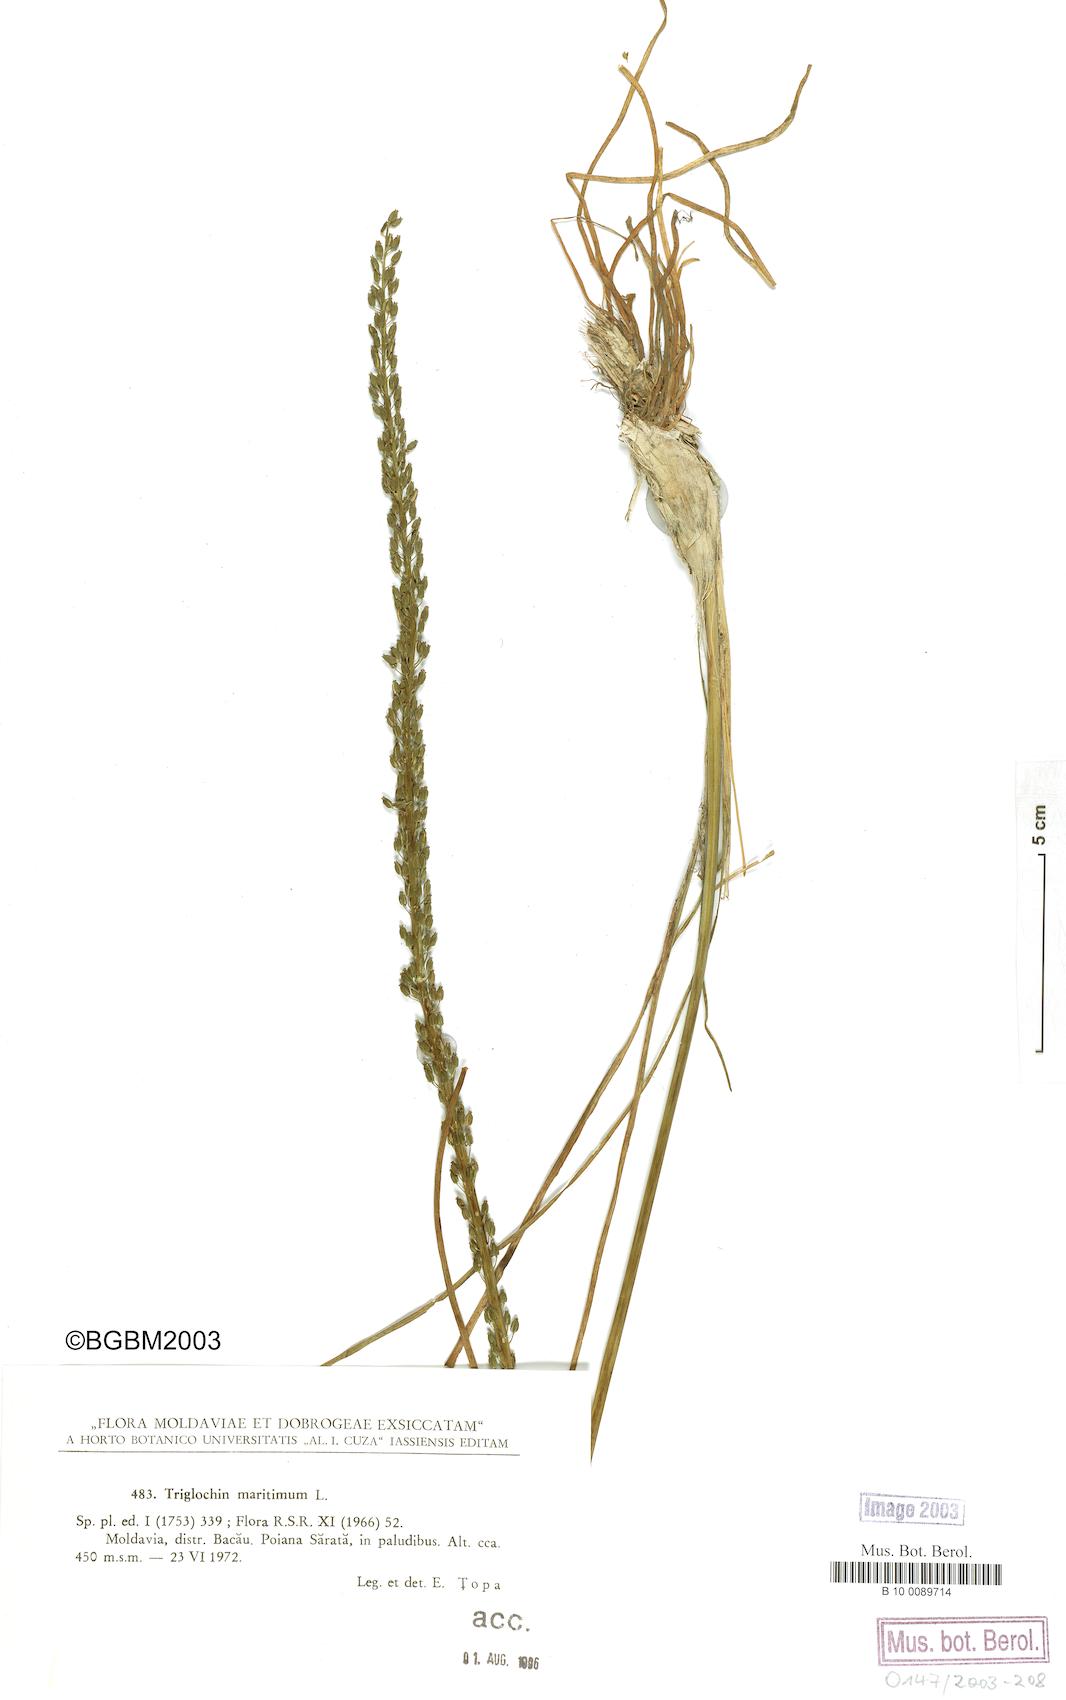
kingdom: Plantae
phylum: Tracheophyta
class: Liliopsida
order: Alismatales
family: Juncaginaceae
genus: Triglochin
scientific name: Triglochin maritima
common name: Sea arrowgrass
